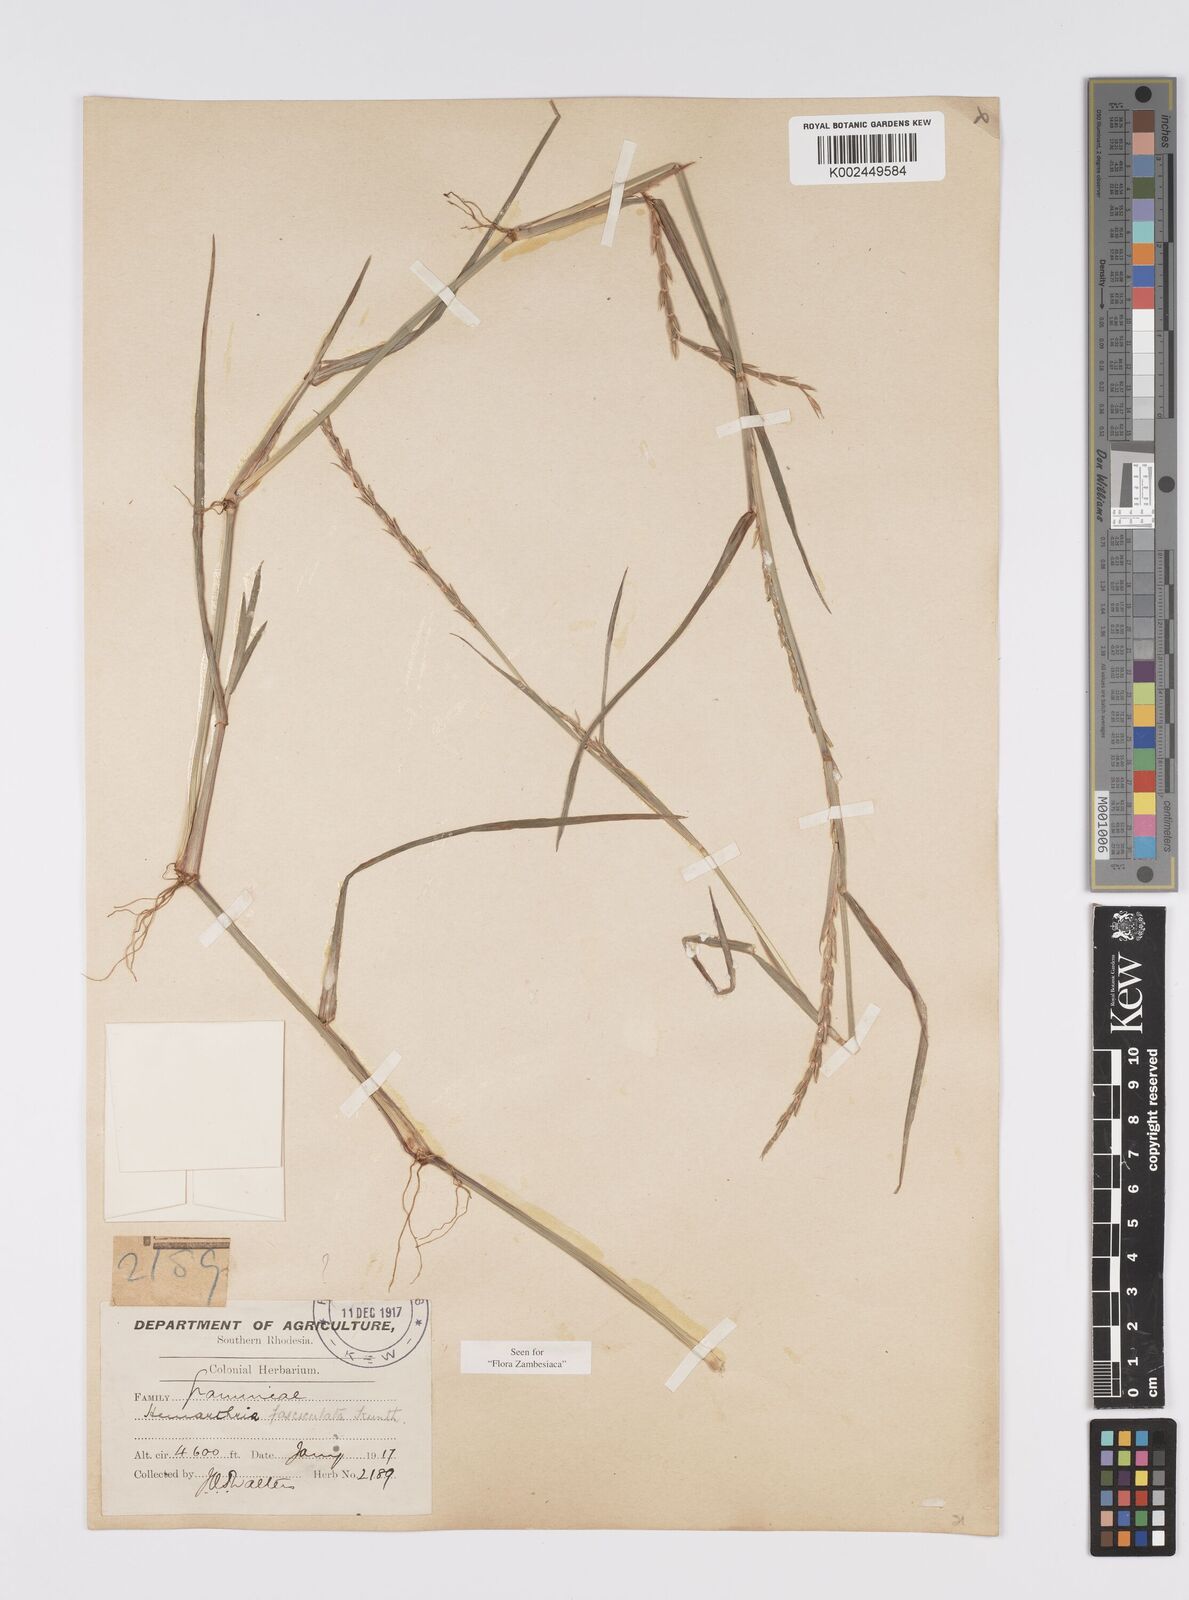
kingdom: Plantae
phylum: Tracheophyta
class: Liliopsida
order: Poales
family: Poaceae
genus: Hemarthria
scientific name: Hemarthria altissima
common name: African jointgrass
